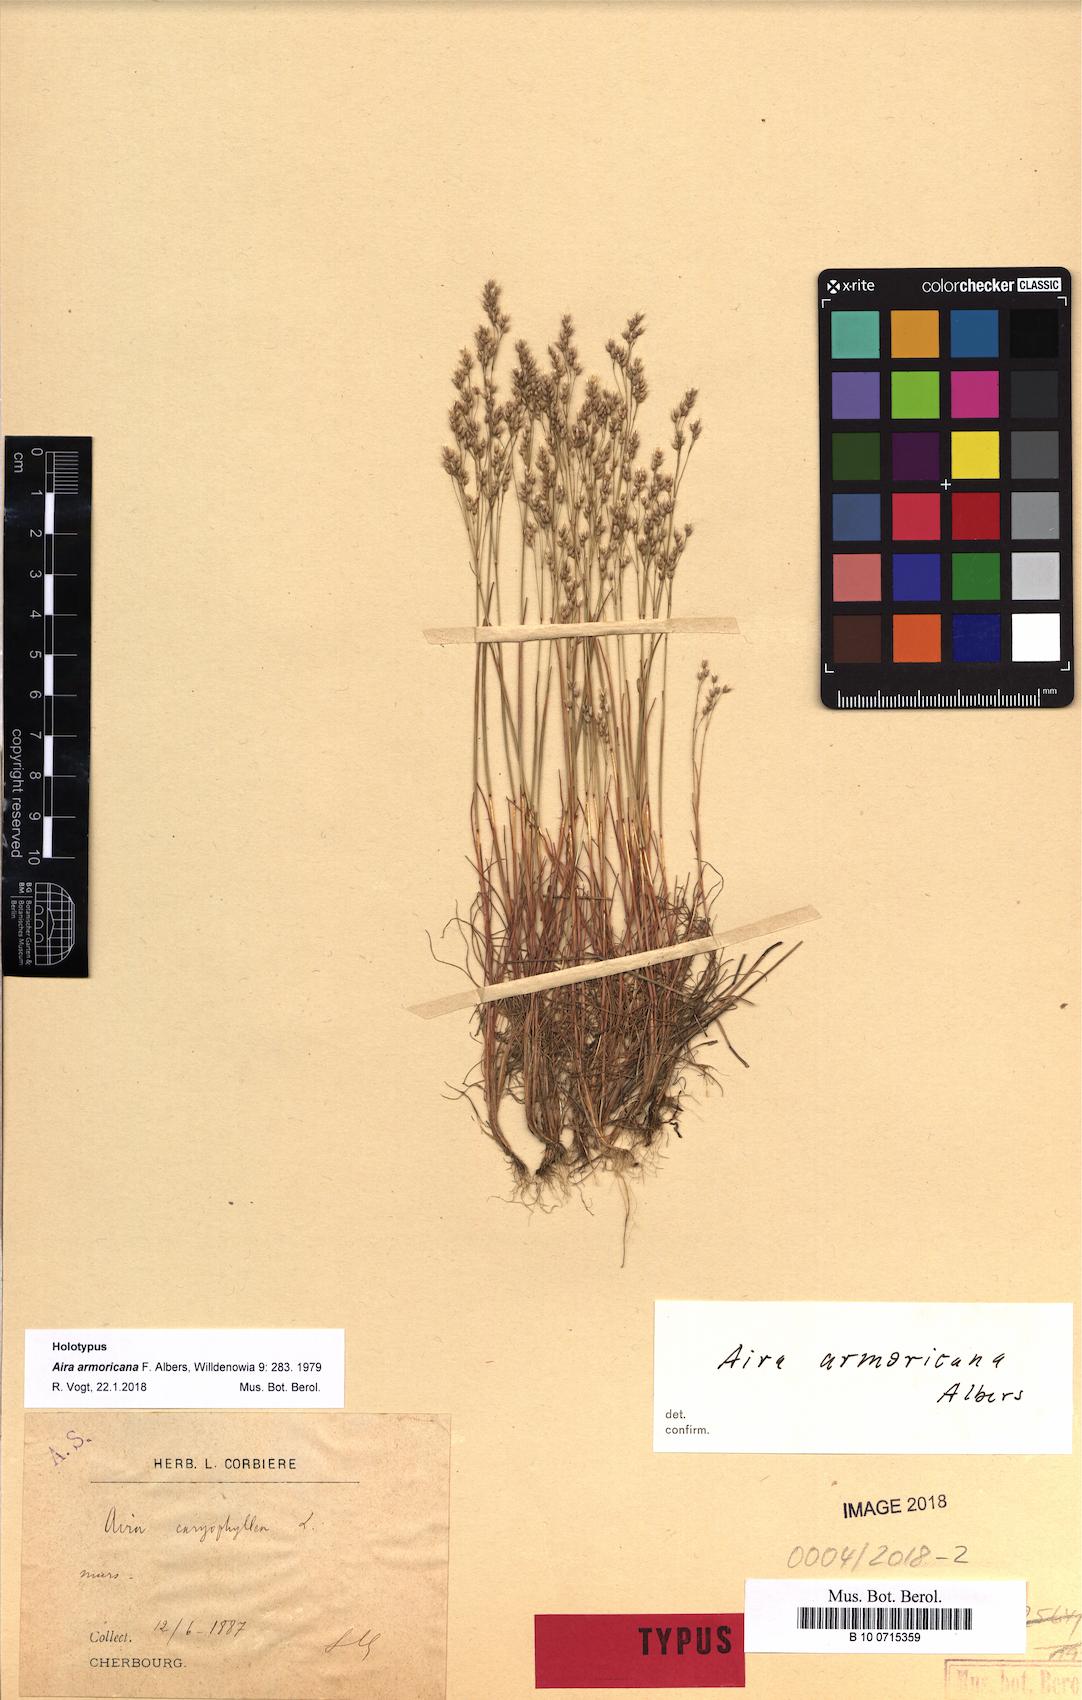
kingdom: Plantae
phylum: Tracheophyta
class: Liliopsida
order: Poales
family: Poaceae
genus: Aira
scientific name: Aira caryophyllea
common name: Silver hairgrass
